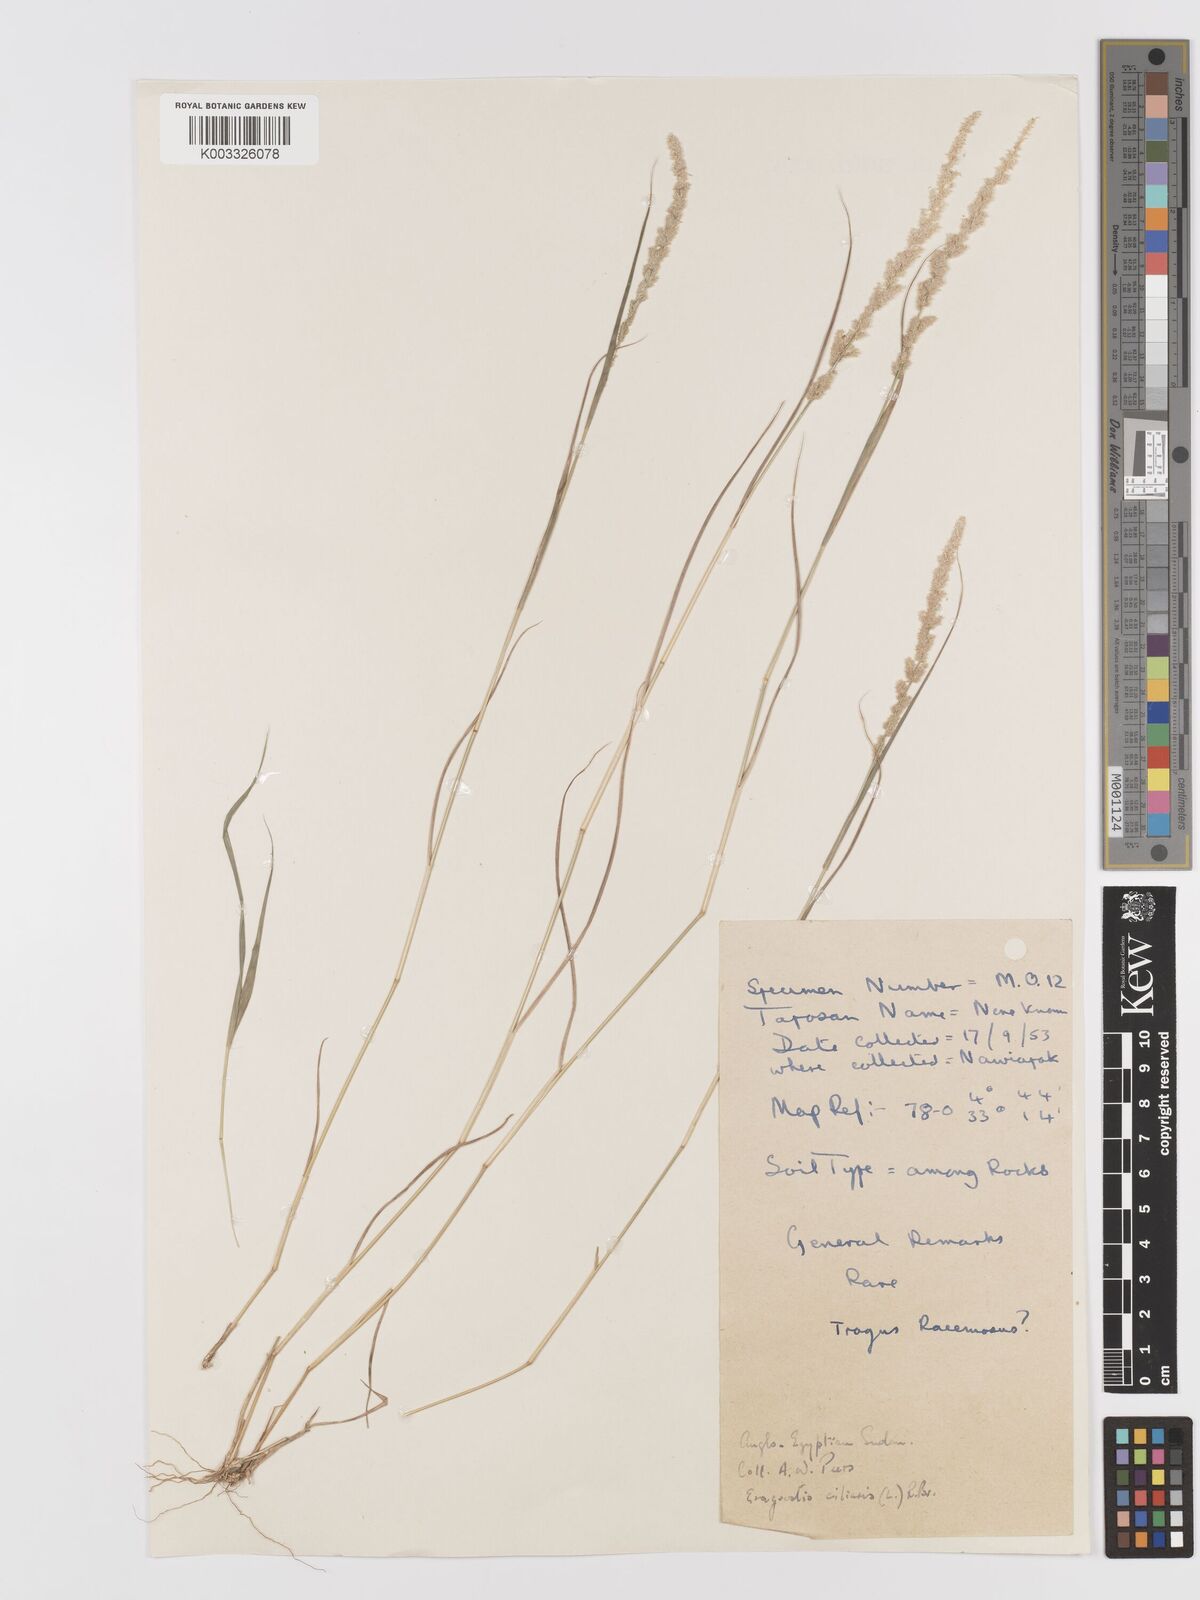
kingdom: Plantae
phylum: Tracheophyta
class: Liliopsida
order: Poales
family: Poaceae
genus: Eragrostis
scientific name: Eragrostis ciliaris
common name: Gophertail lovegrass
